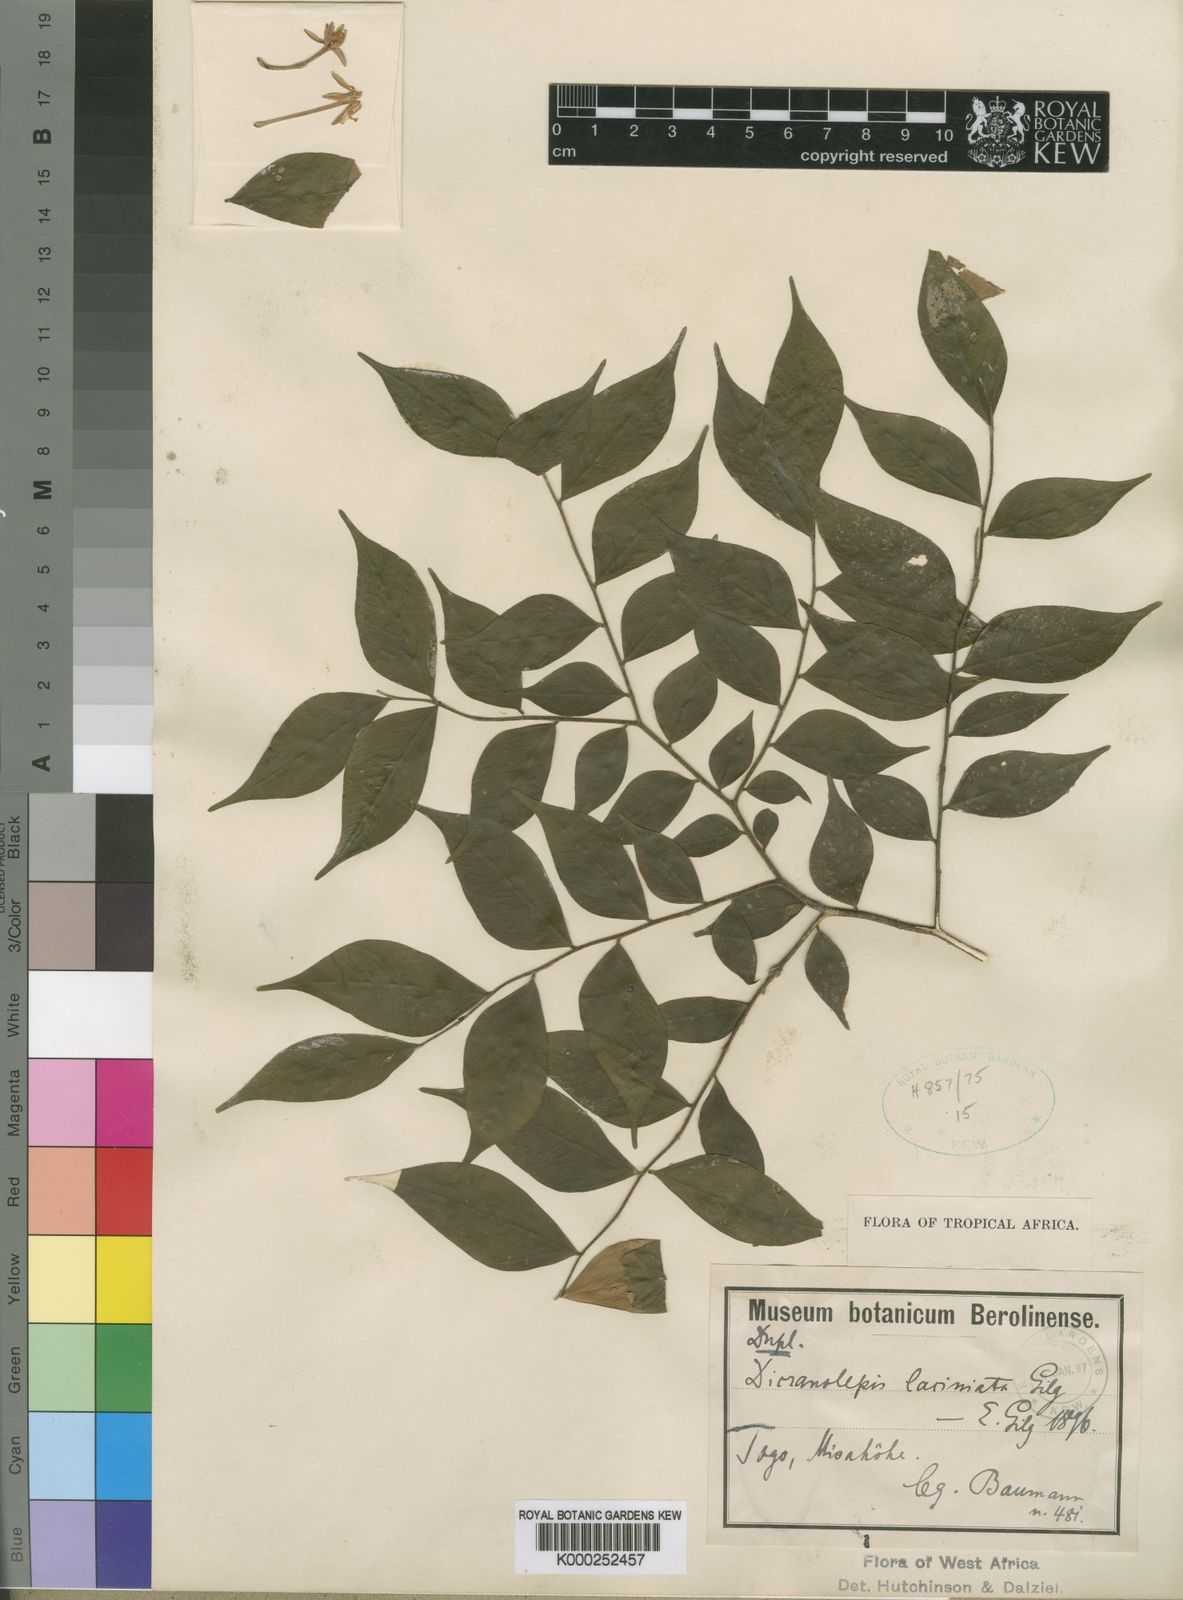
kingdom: Plantae
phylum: Tracheophyta
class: Magnoliopsida
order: Malvales
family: Thymelaeaceae
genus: Dicranolepis
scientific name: Dicranolepis laciniata
